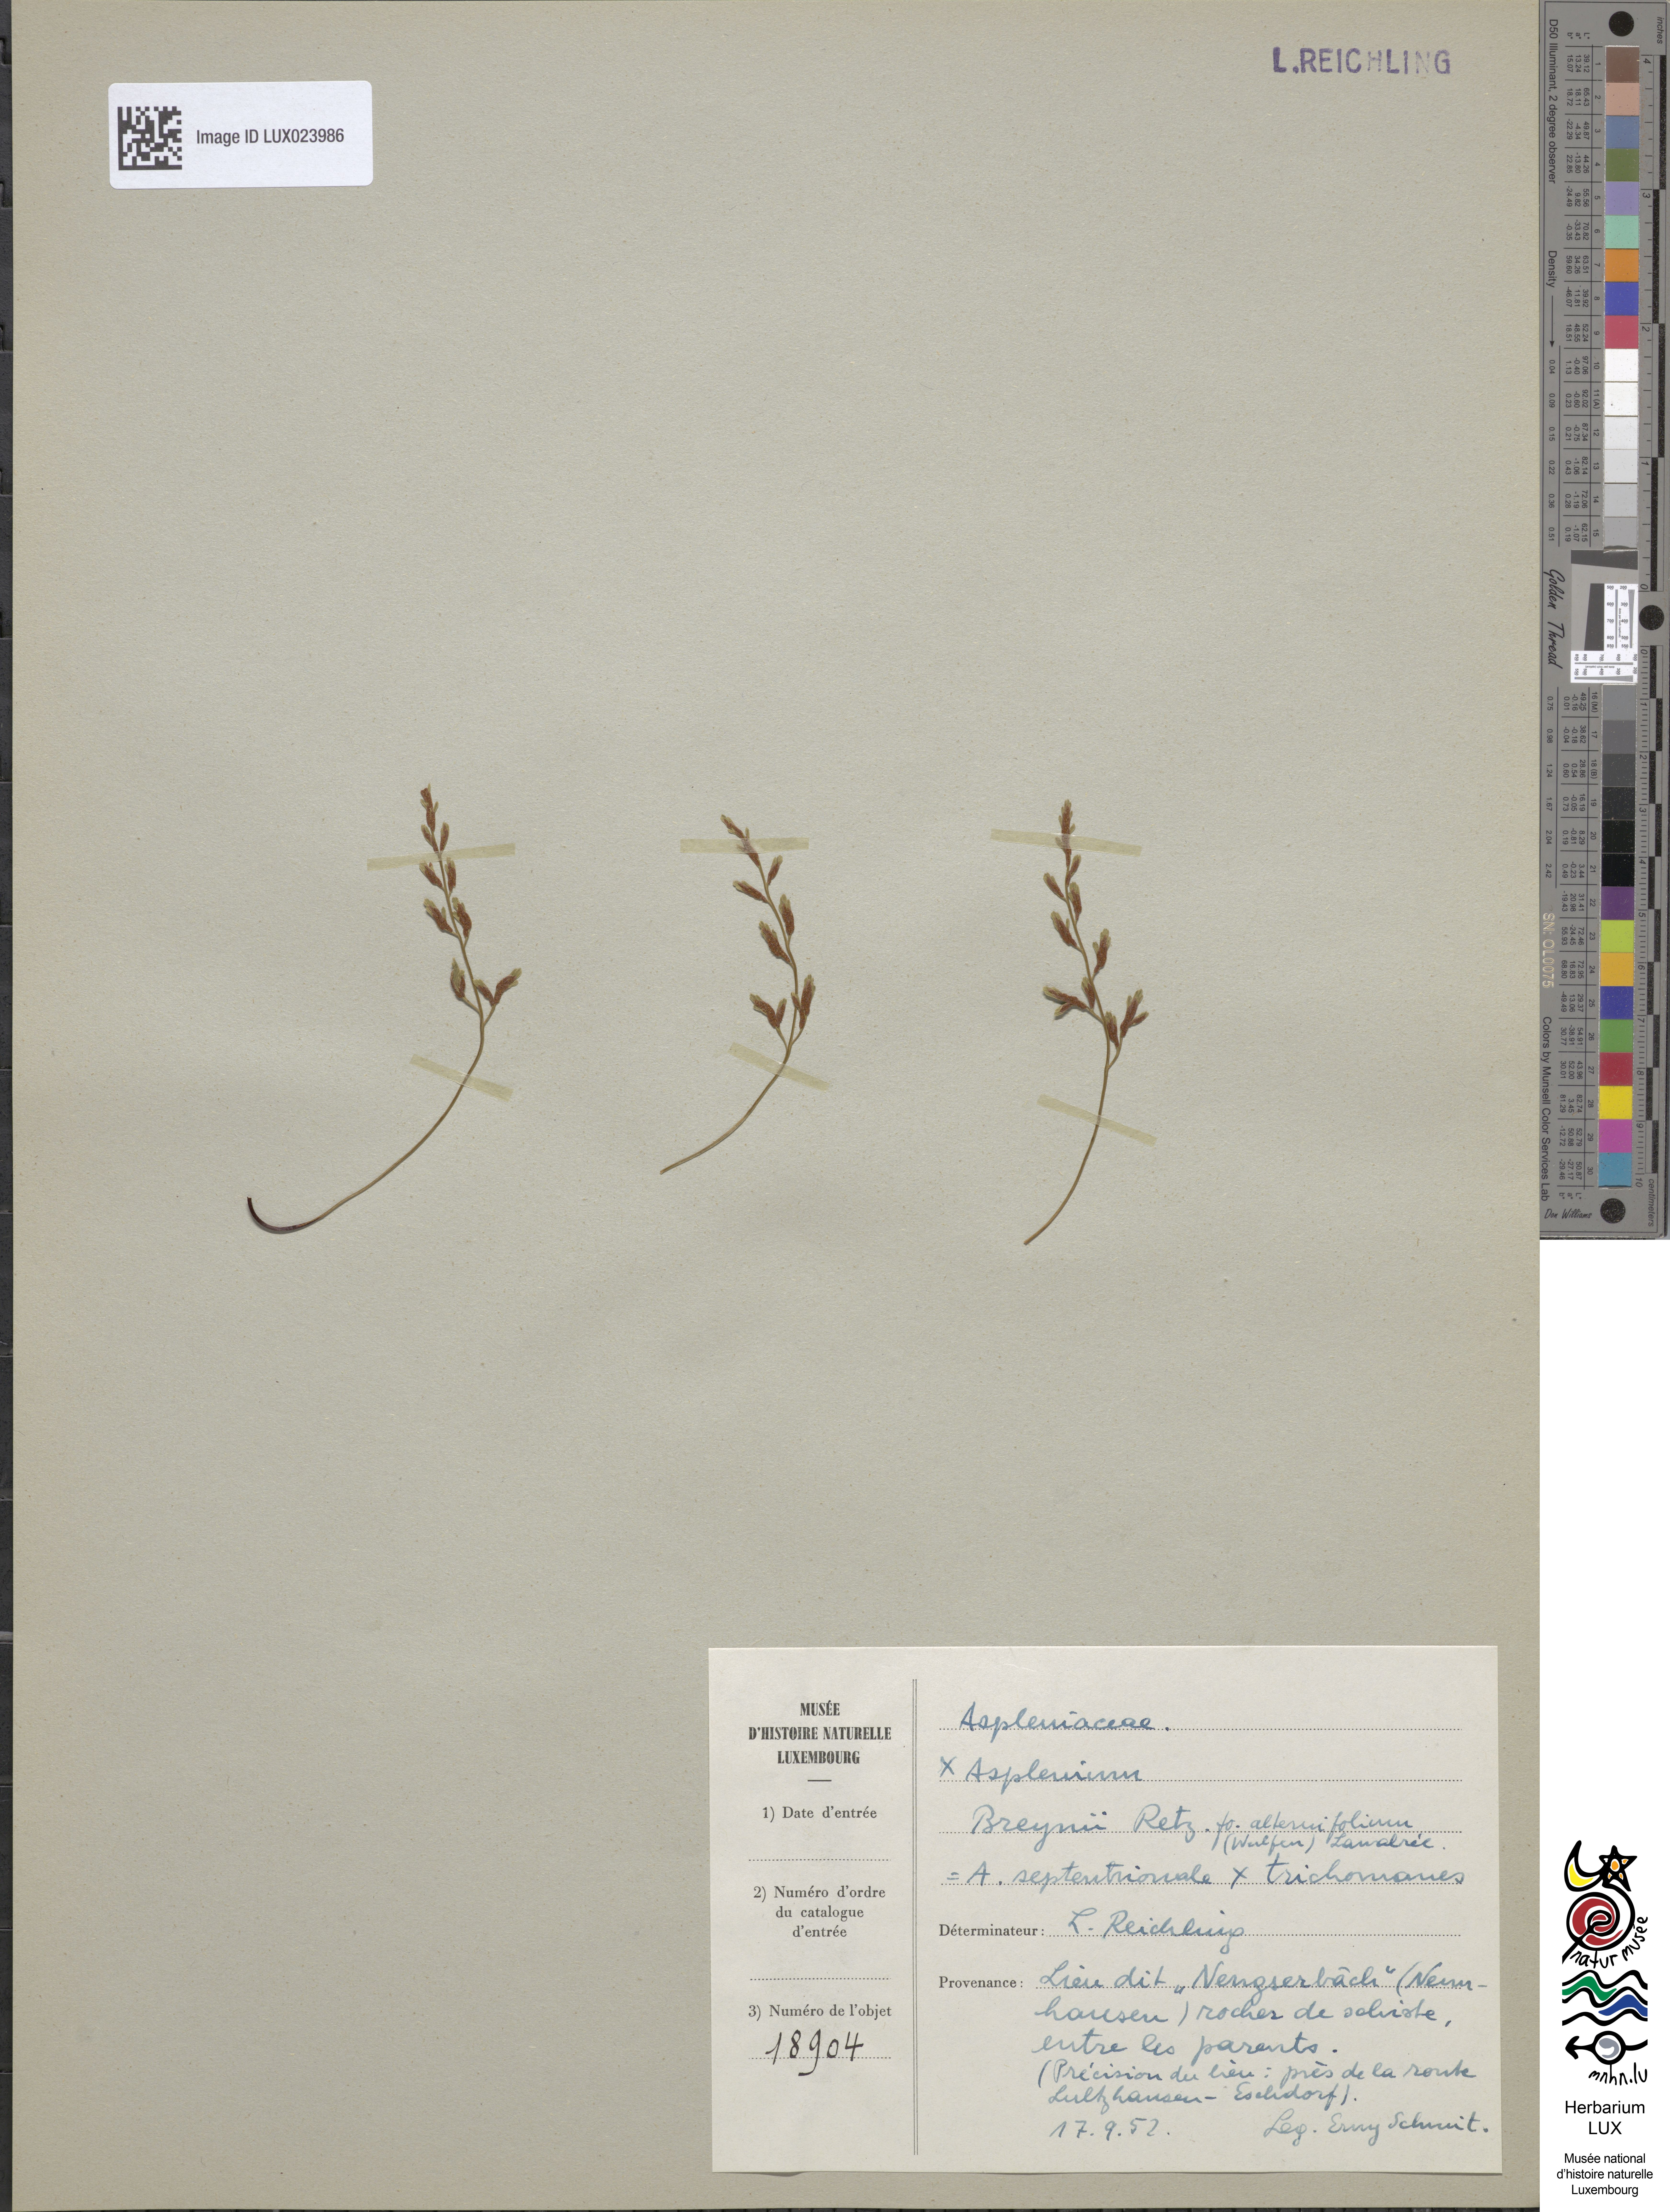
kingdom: Plantae
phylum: Tracheophyta
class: Polypodiopsida
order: Polypodiales
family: Aspleniaceae
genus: Asplenium
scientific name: Asplenium alternifolium
